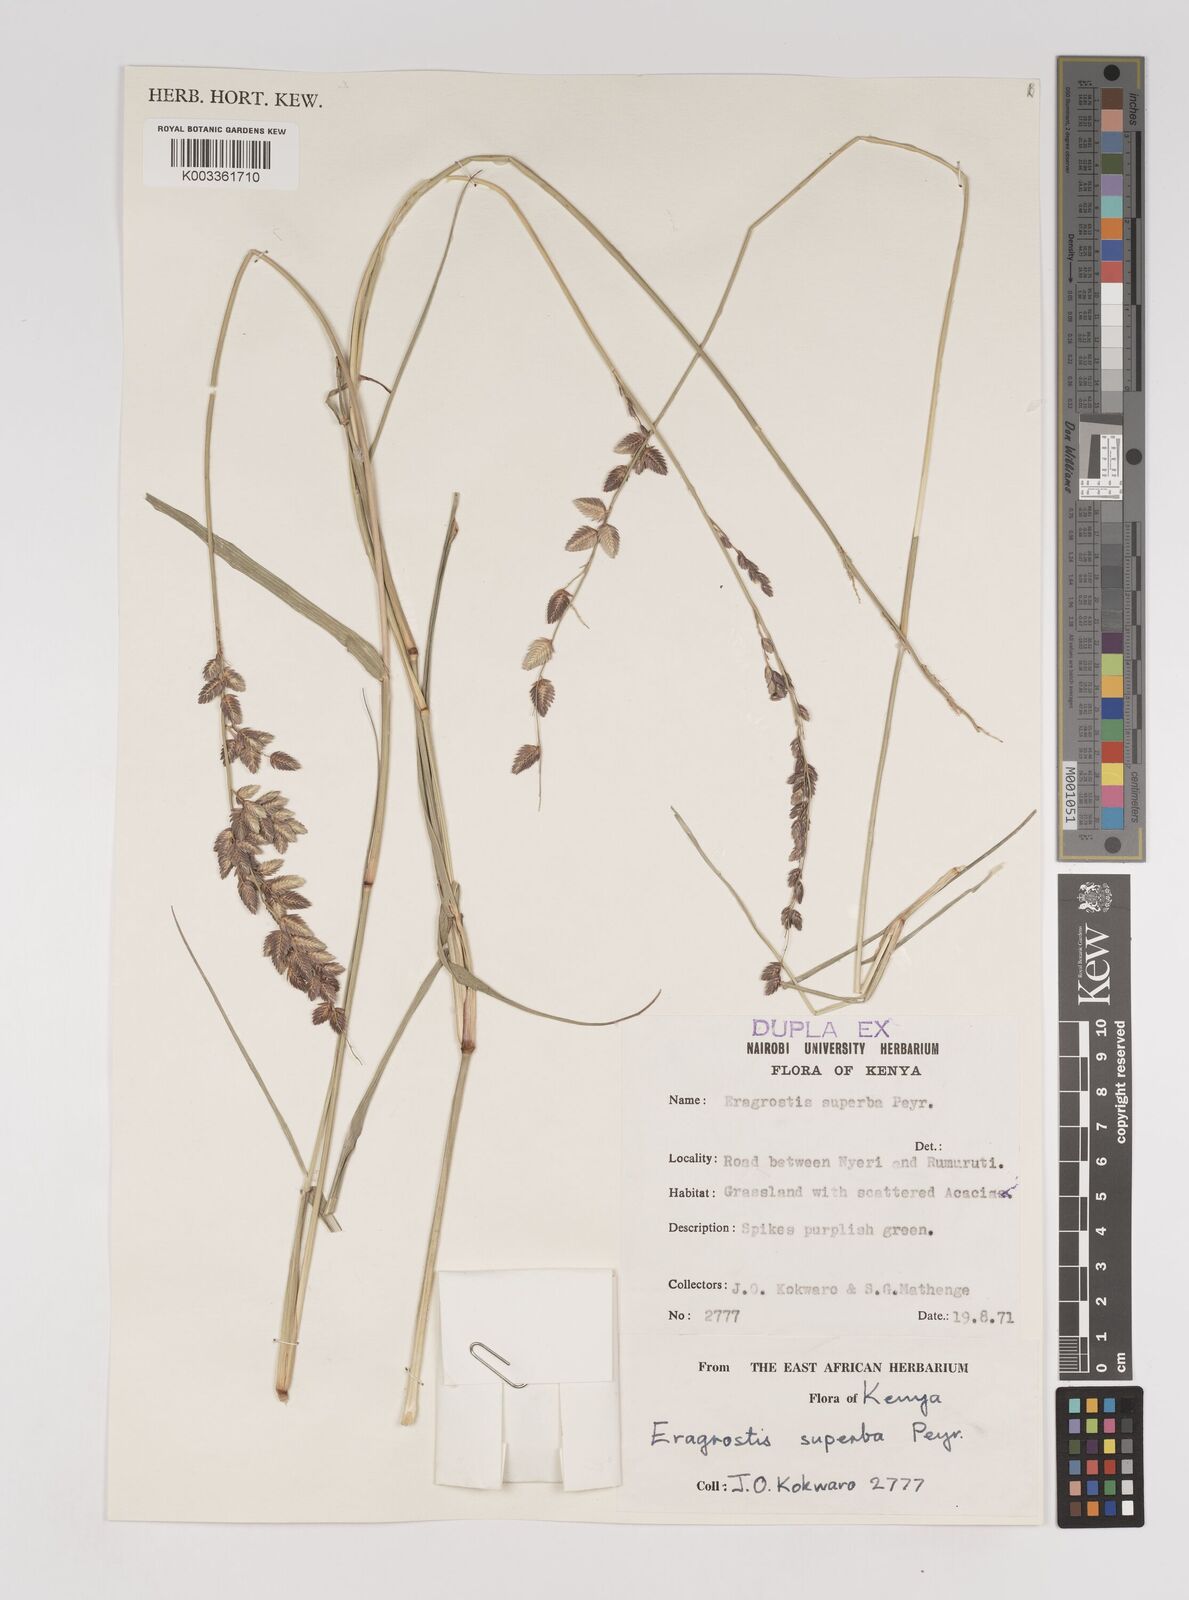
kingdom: Plantae
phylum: Tracheophyta
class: Liliopsida
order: Poales
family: Poaceae
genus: Eragrostis
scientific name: Eragrostis superba
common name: Wilman lovegrass
